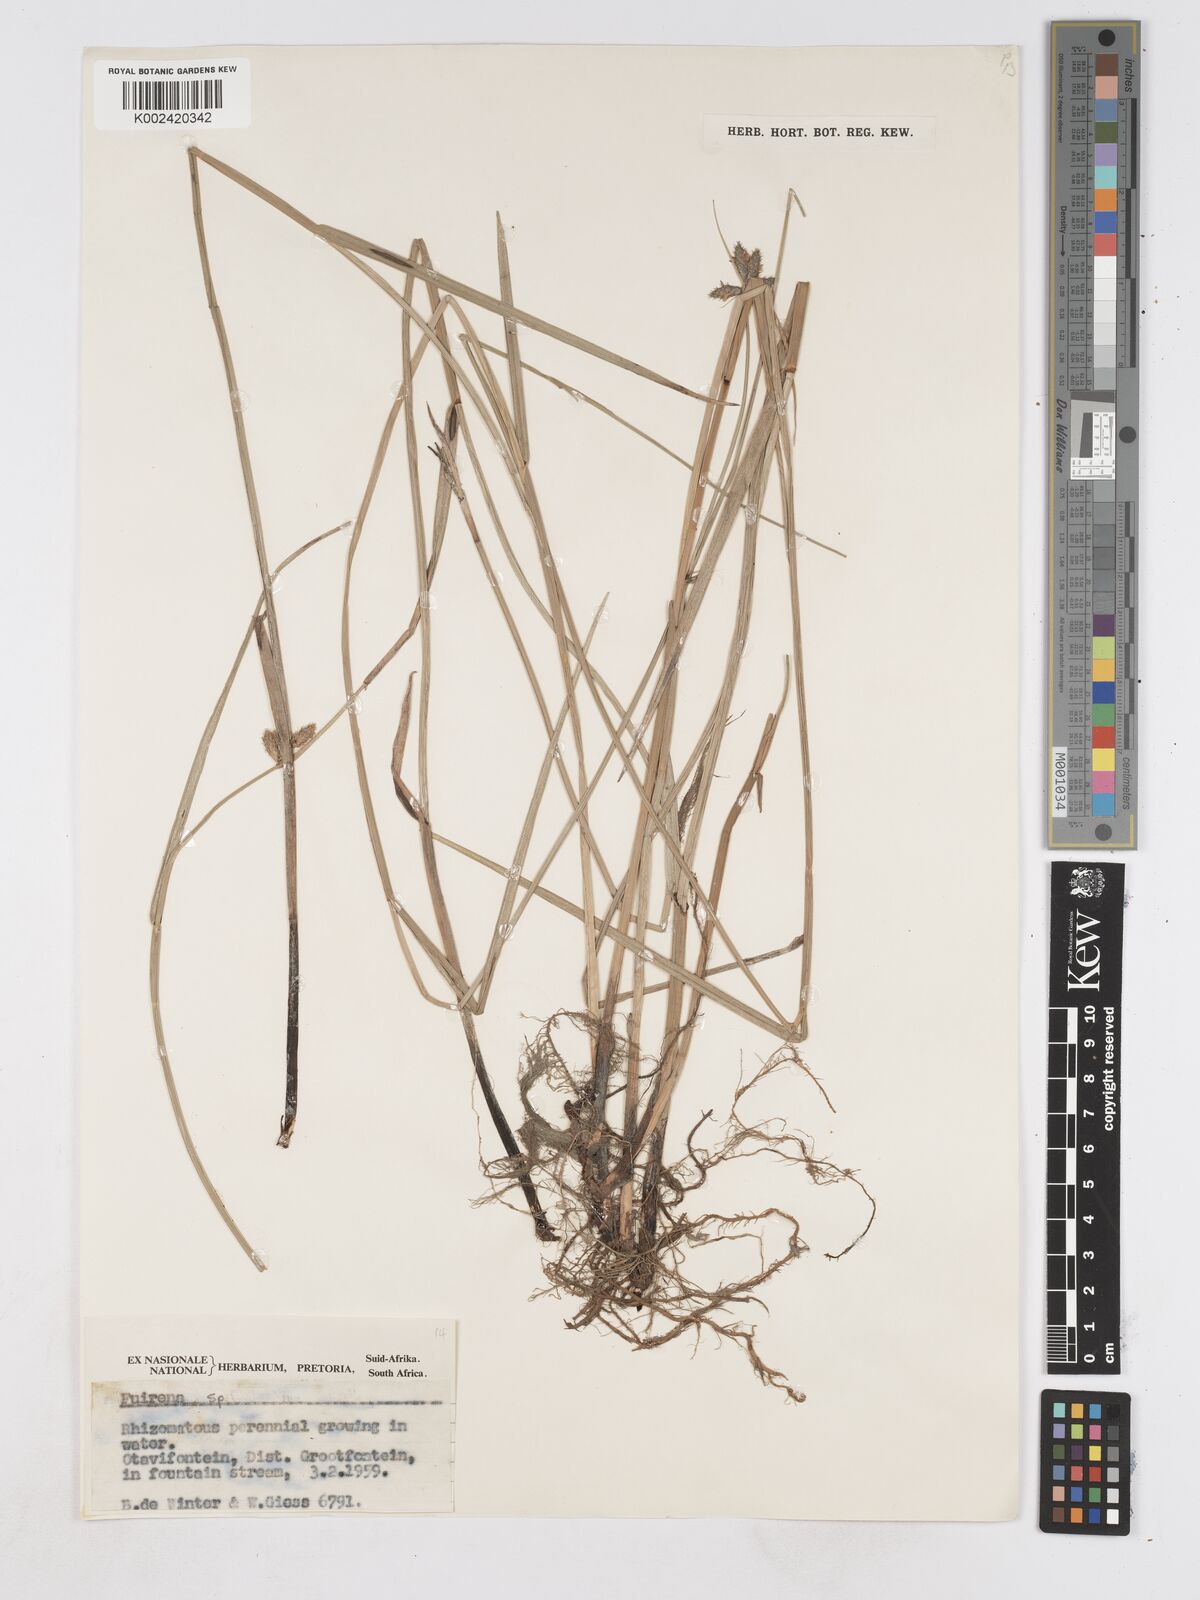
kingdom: Plantae
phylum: Tracheophyta
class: Liliopsida
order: Poales
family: Cyperaceae
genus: Fuirena
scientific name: Fuirena
